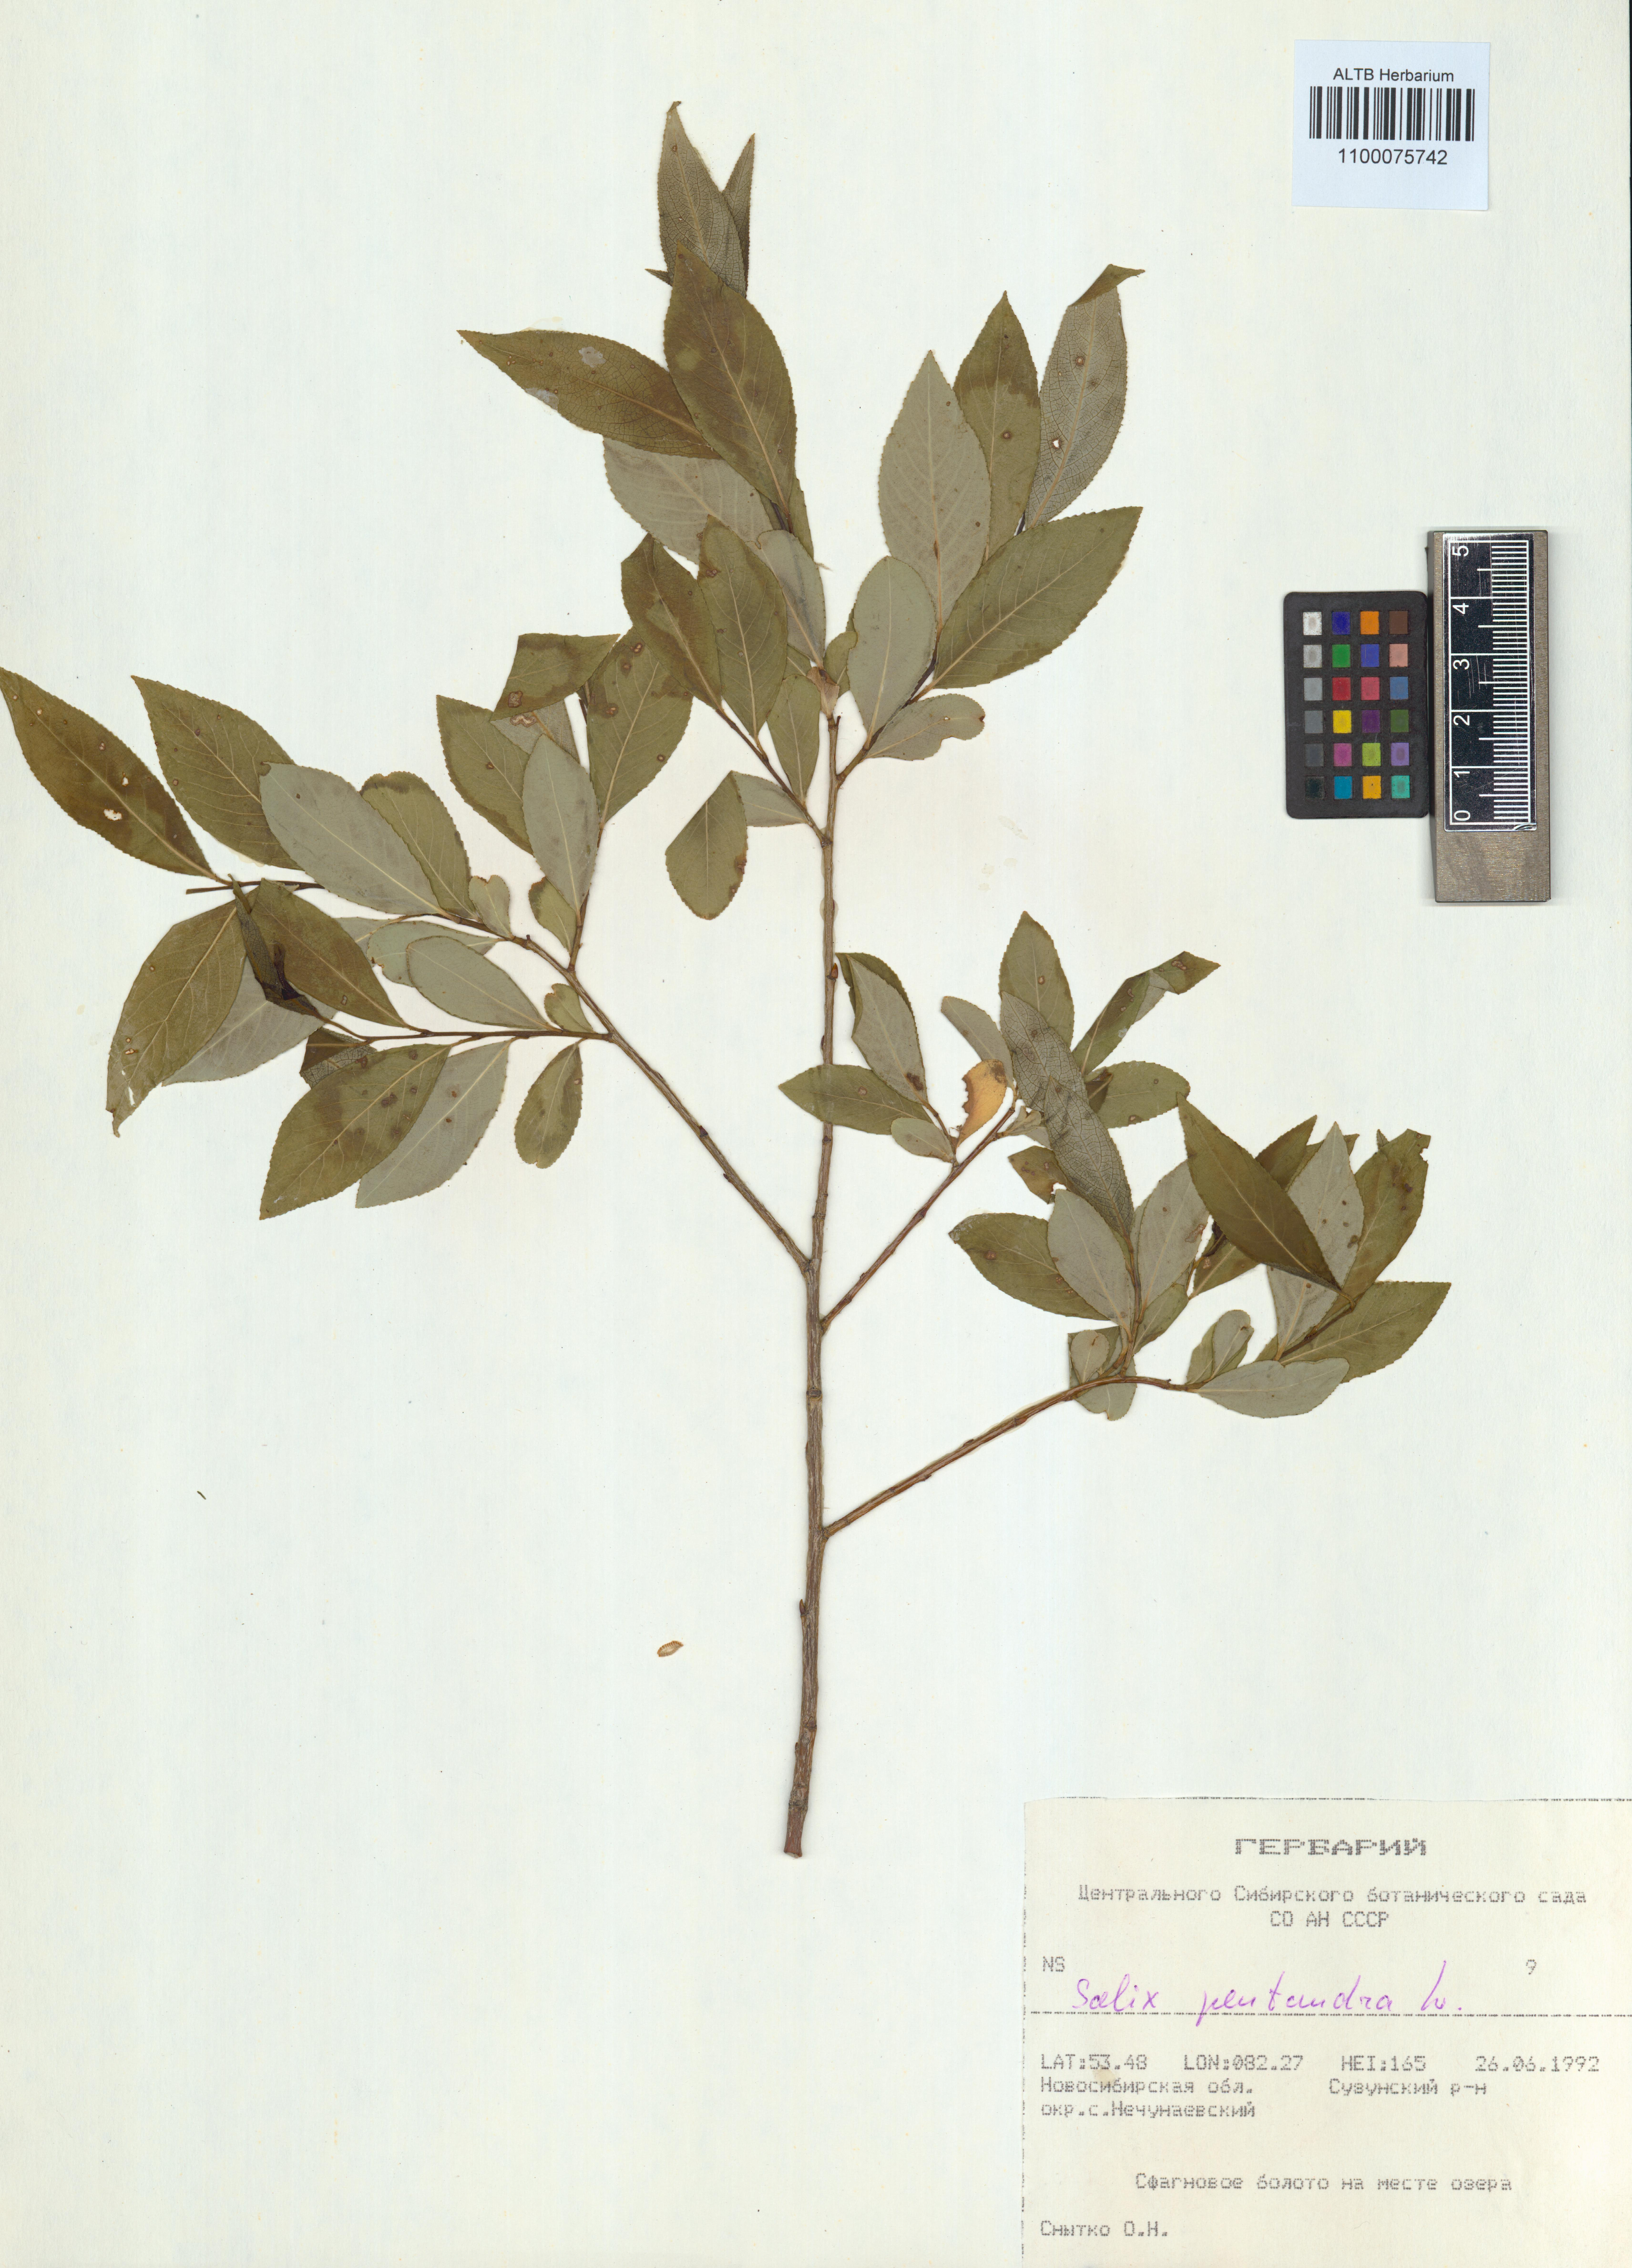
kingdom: Plantae
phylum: Tracheophyta
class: Magnoliopsida
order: Malpighiales
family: Salicaceae
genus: Salix
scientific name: Salix pentandra
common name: Bay willow
